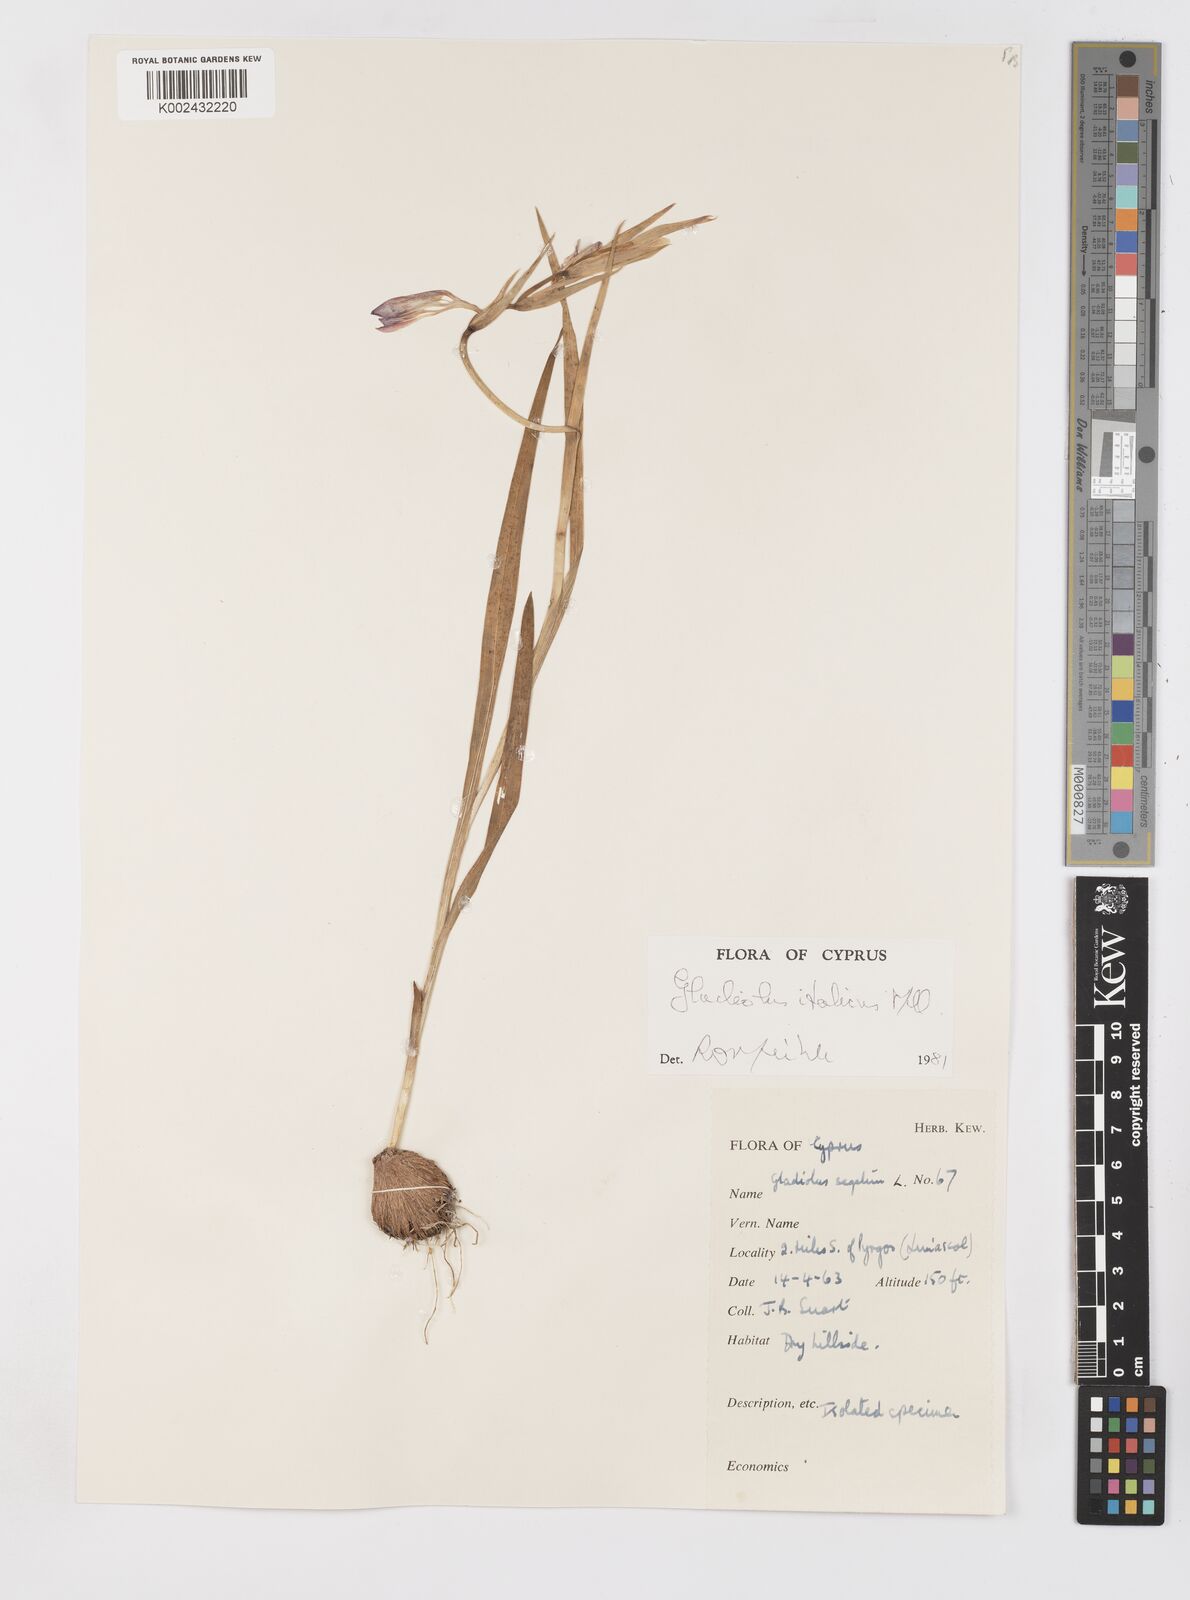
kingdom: Plantae
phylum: Tracheophyta
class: Liliopsida
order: Asparagales
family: Iridaceae
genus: Gladiolus
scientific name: Gladiolus italicus
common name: Field gladiolus
